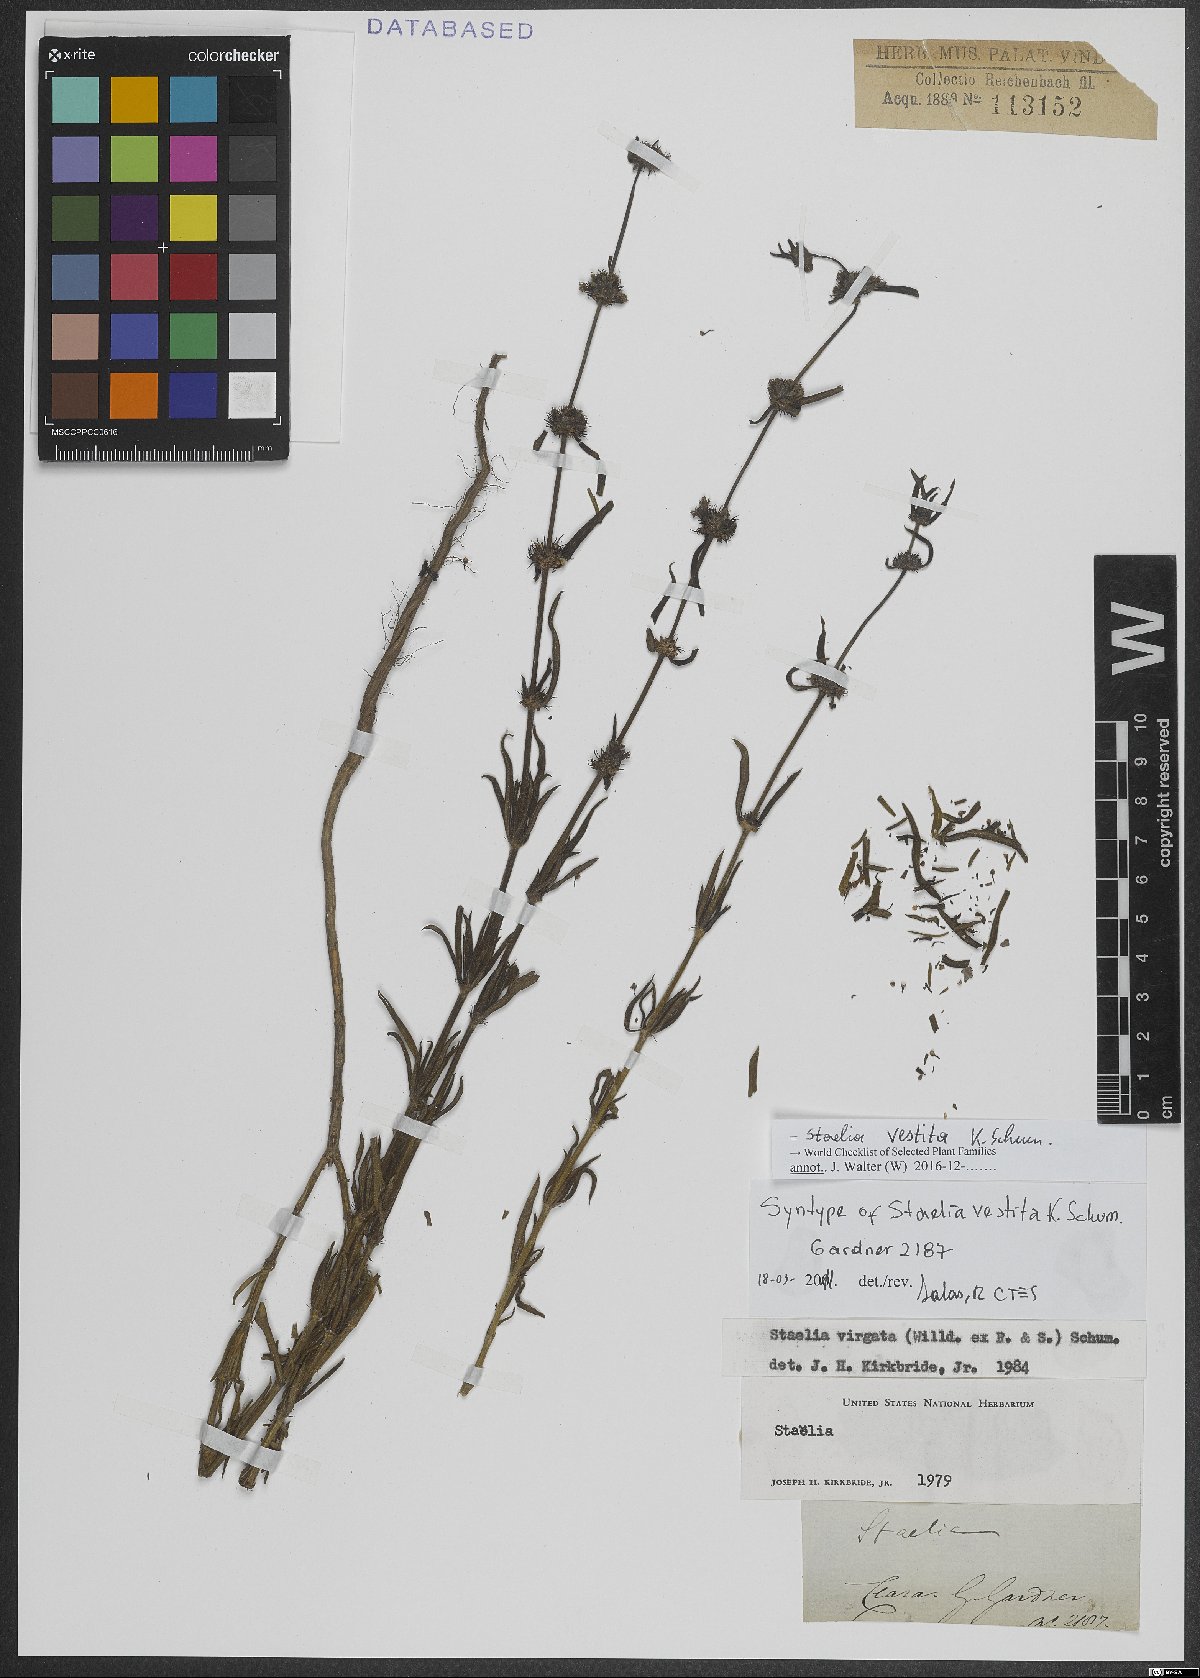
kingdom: Plantae
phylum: Tracheophyta
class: Magnoliopsida
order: Gentianales
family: Rubiaceae
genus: Staelia
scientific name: Staelia vestita
